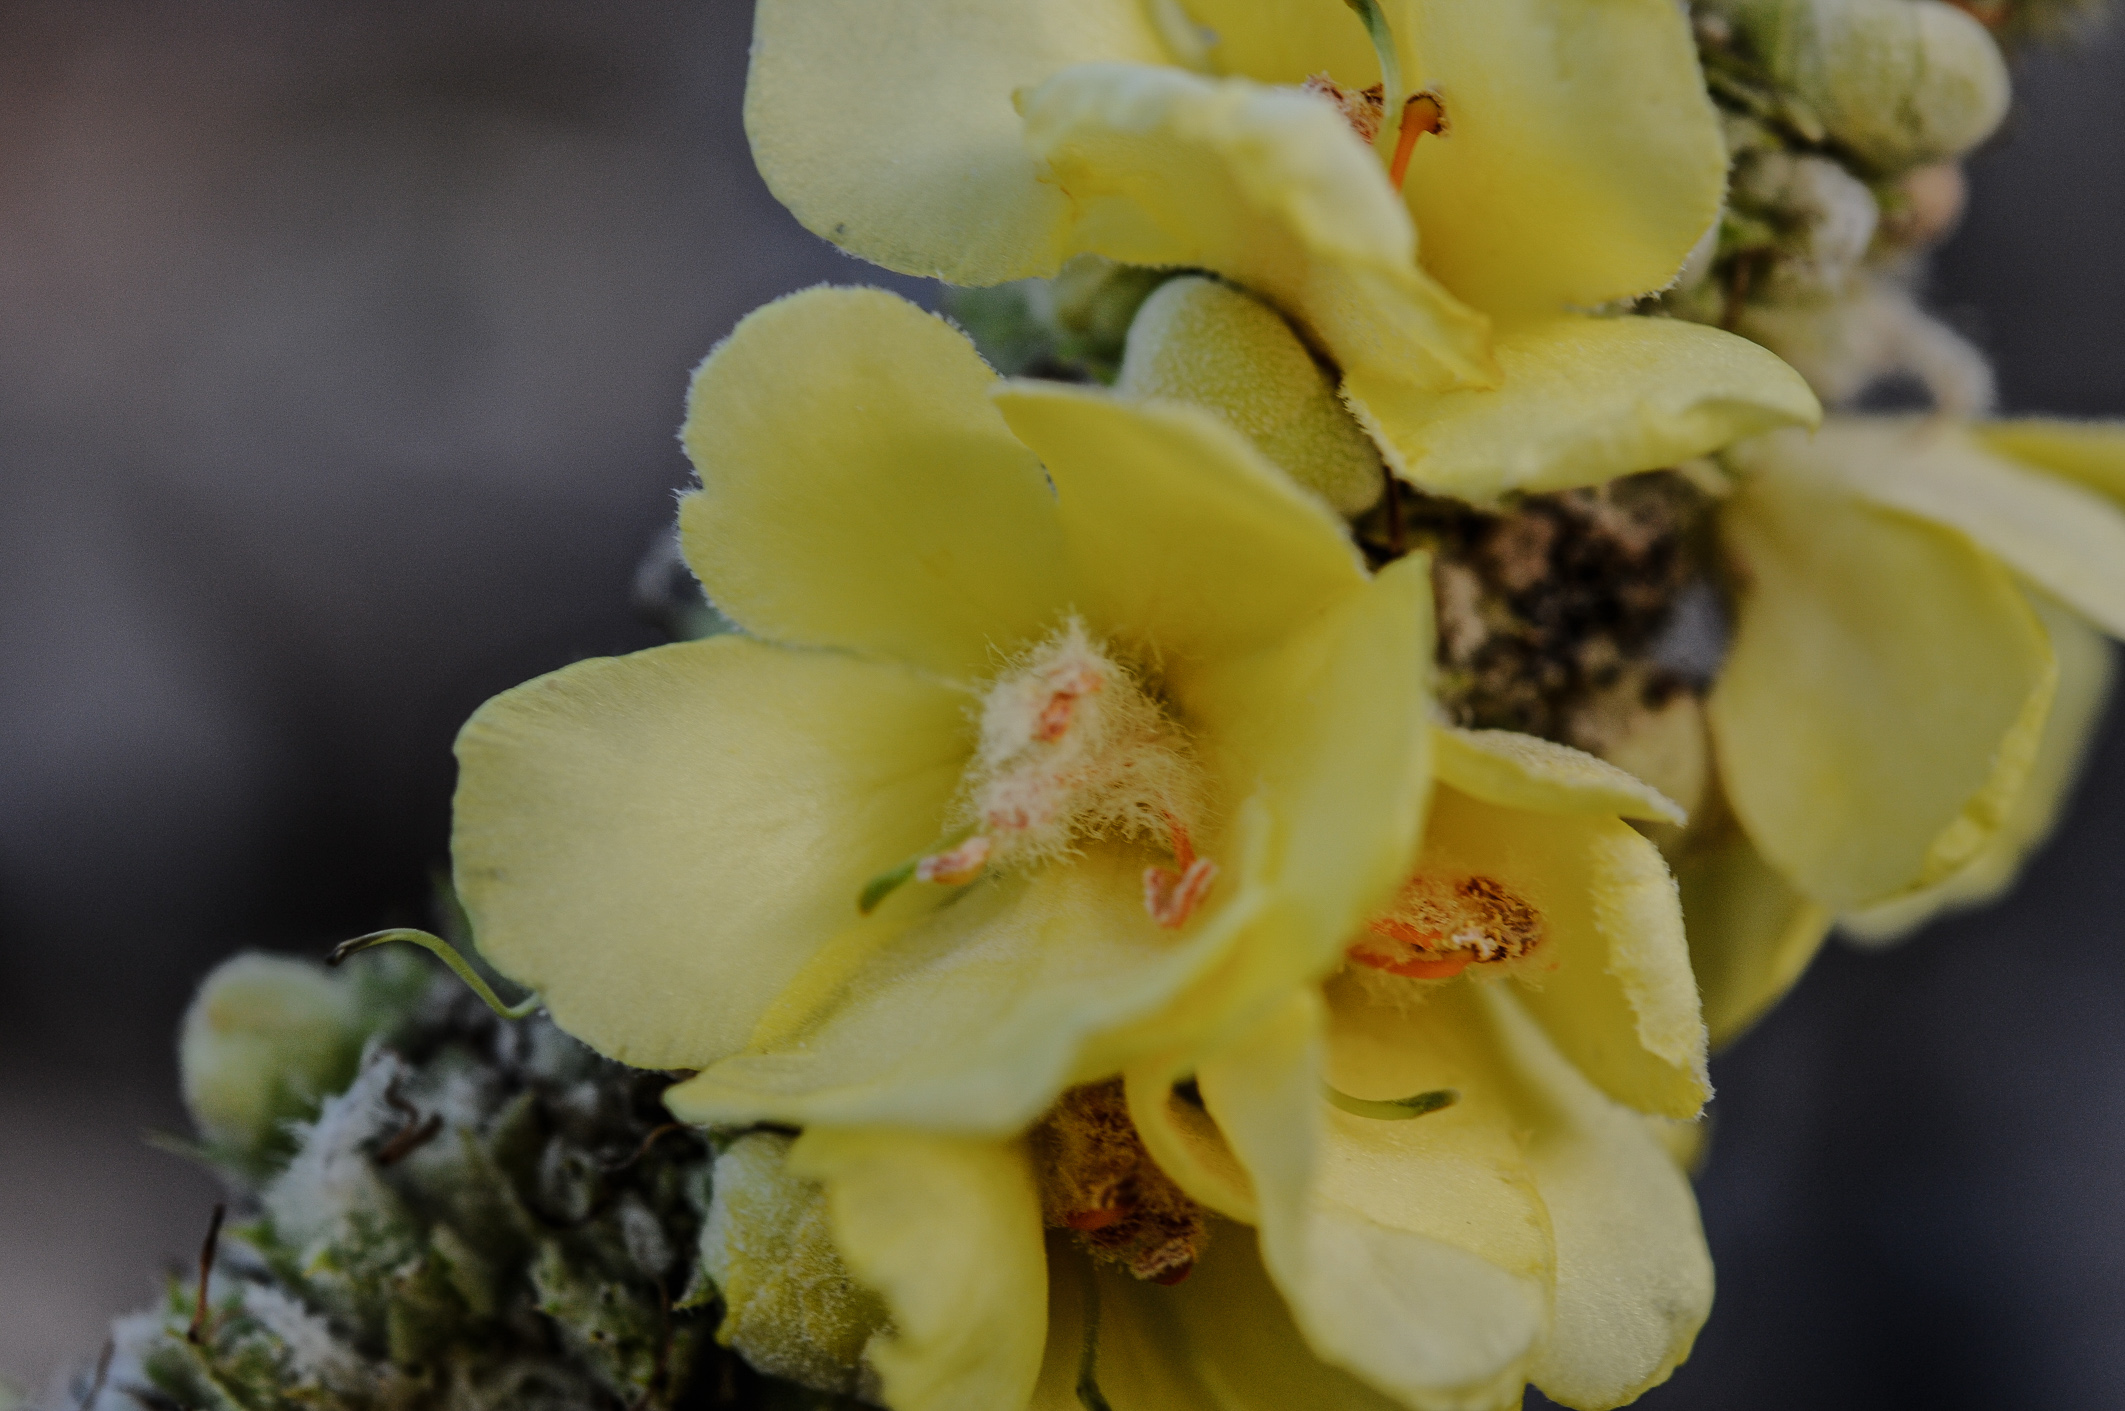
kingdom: Plantae
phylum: Tracheophyta
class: Magnoliopsida
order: Lamiales
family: Scrophulariaceae
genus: Verbascum
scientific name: Verbascum botuliforme
